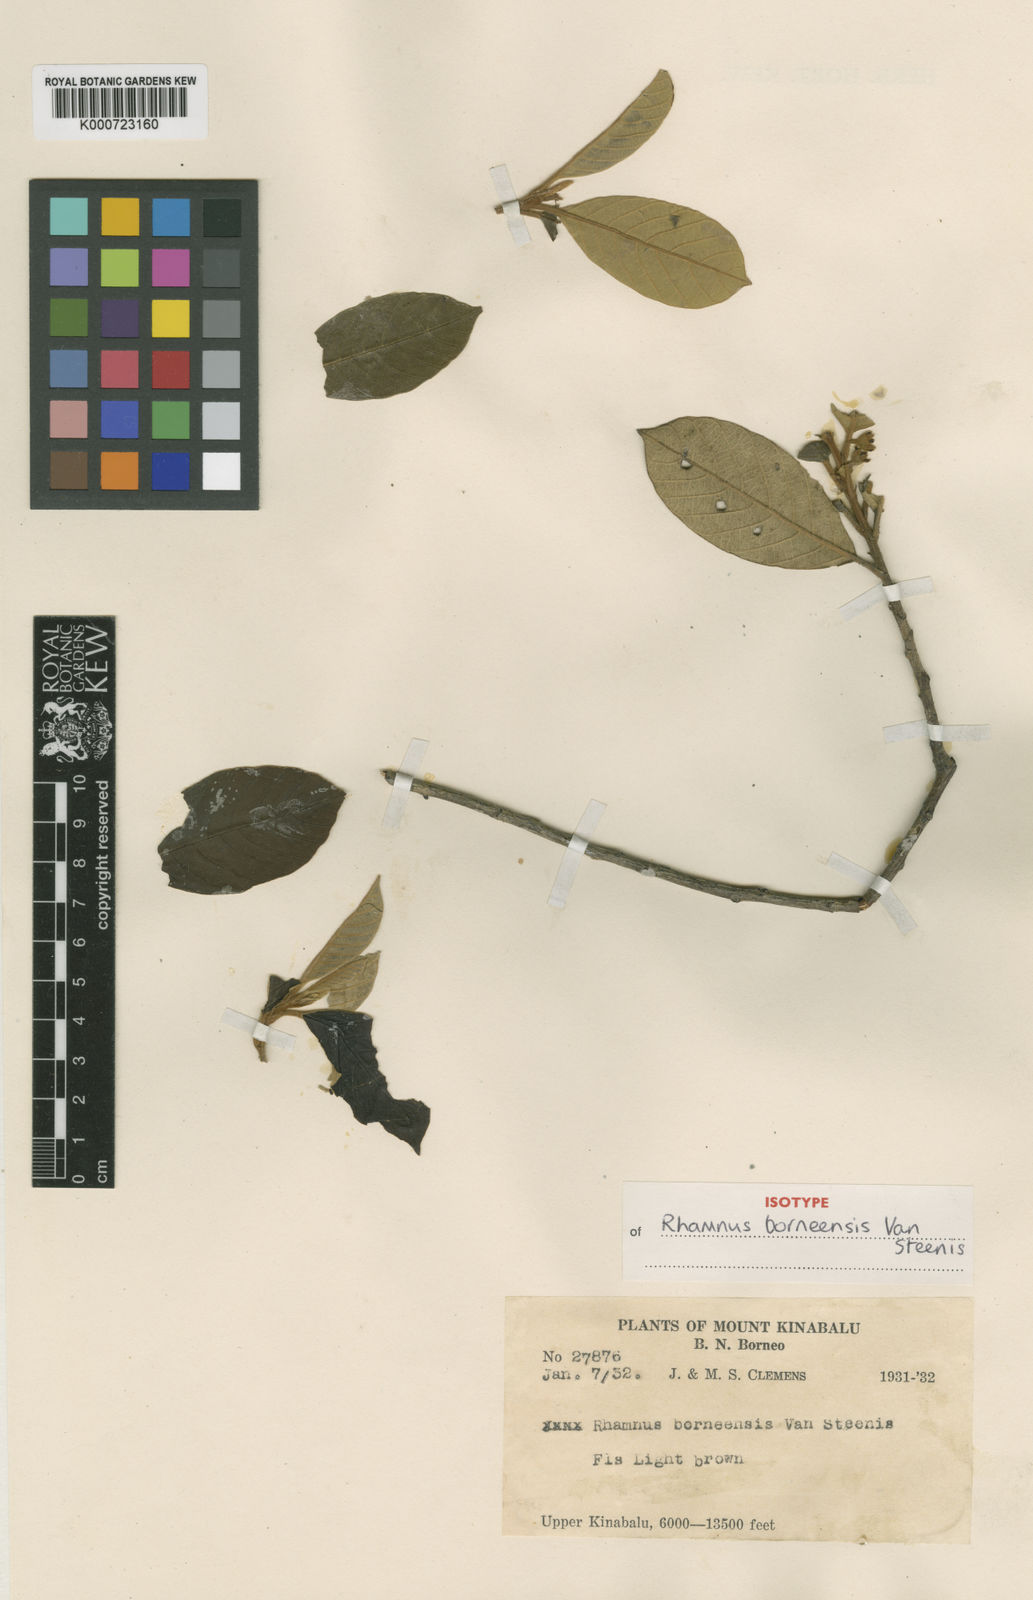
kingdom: Plantae
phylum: Tracheophyta
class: Magnoliopsida
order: Rosales
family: Rhamnaceae
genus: Frangula
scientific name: Frangula borneensis
